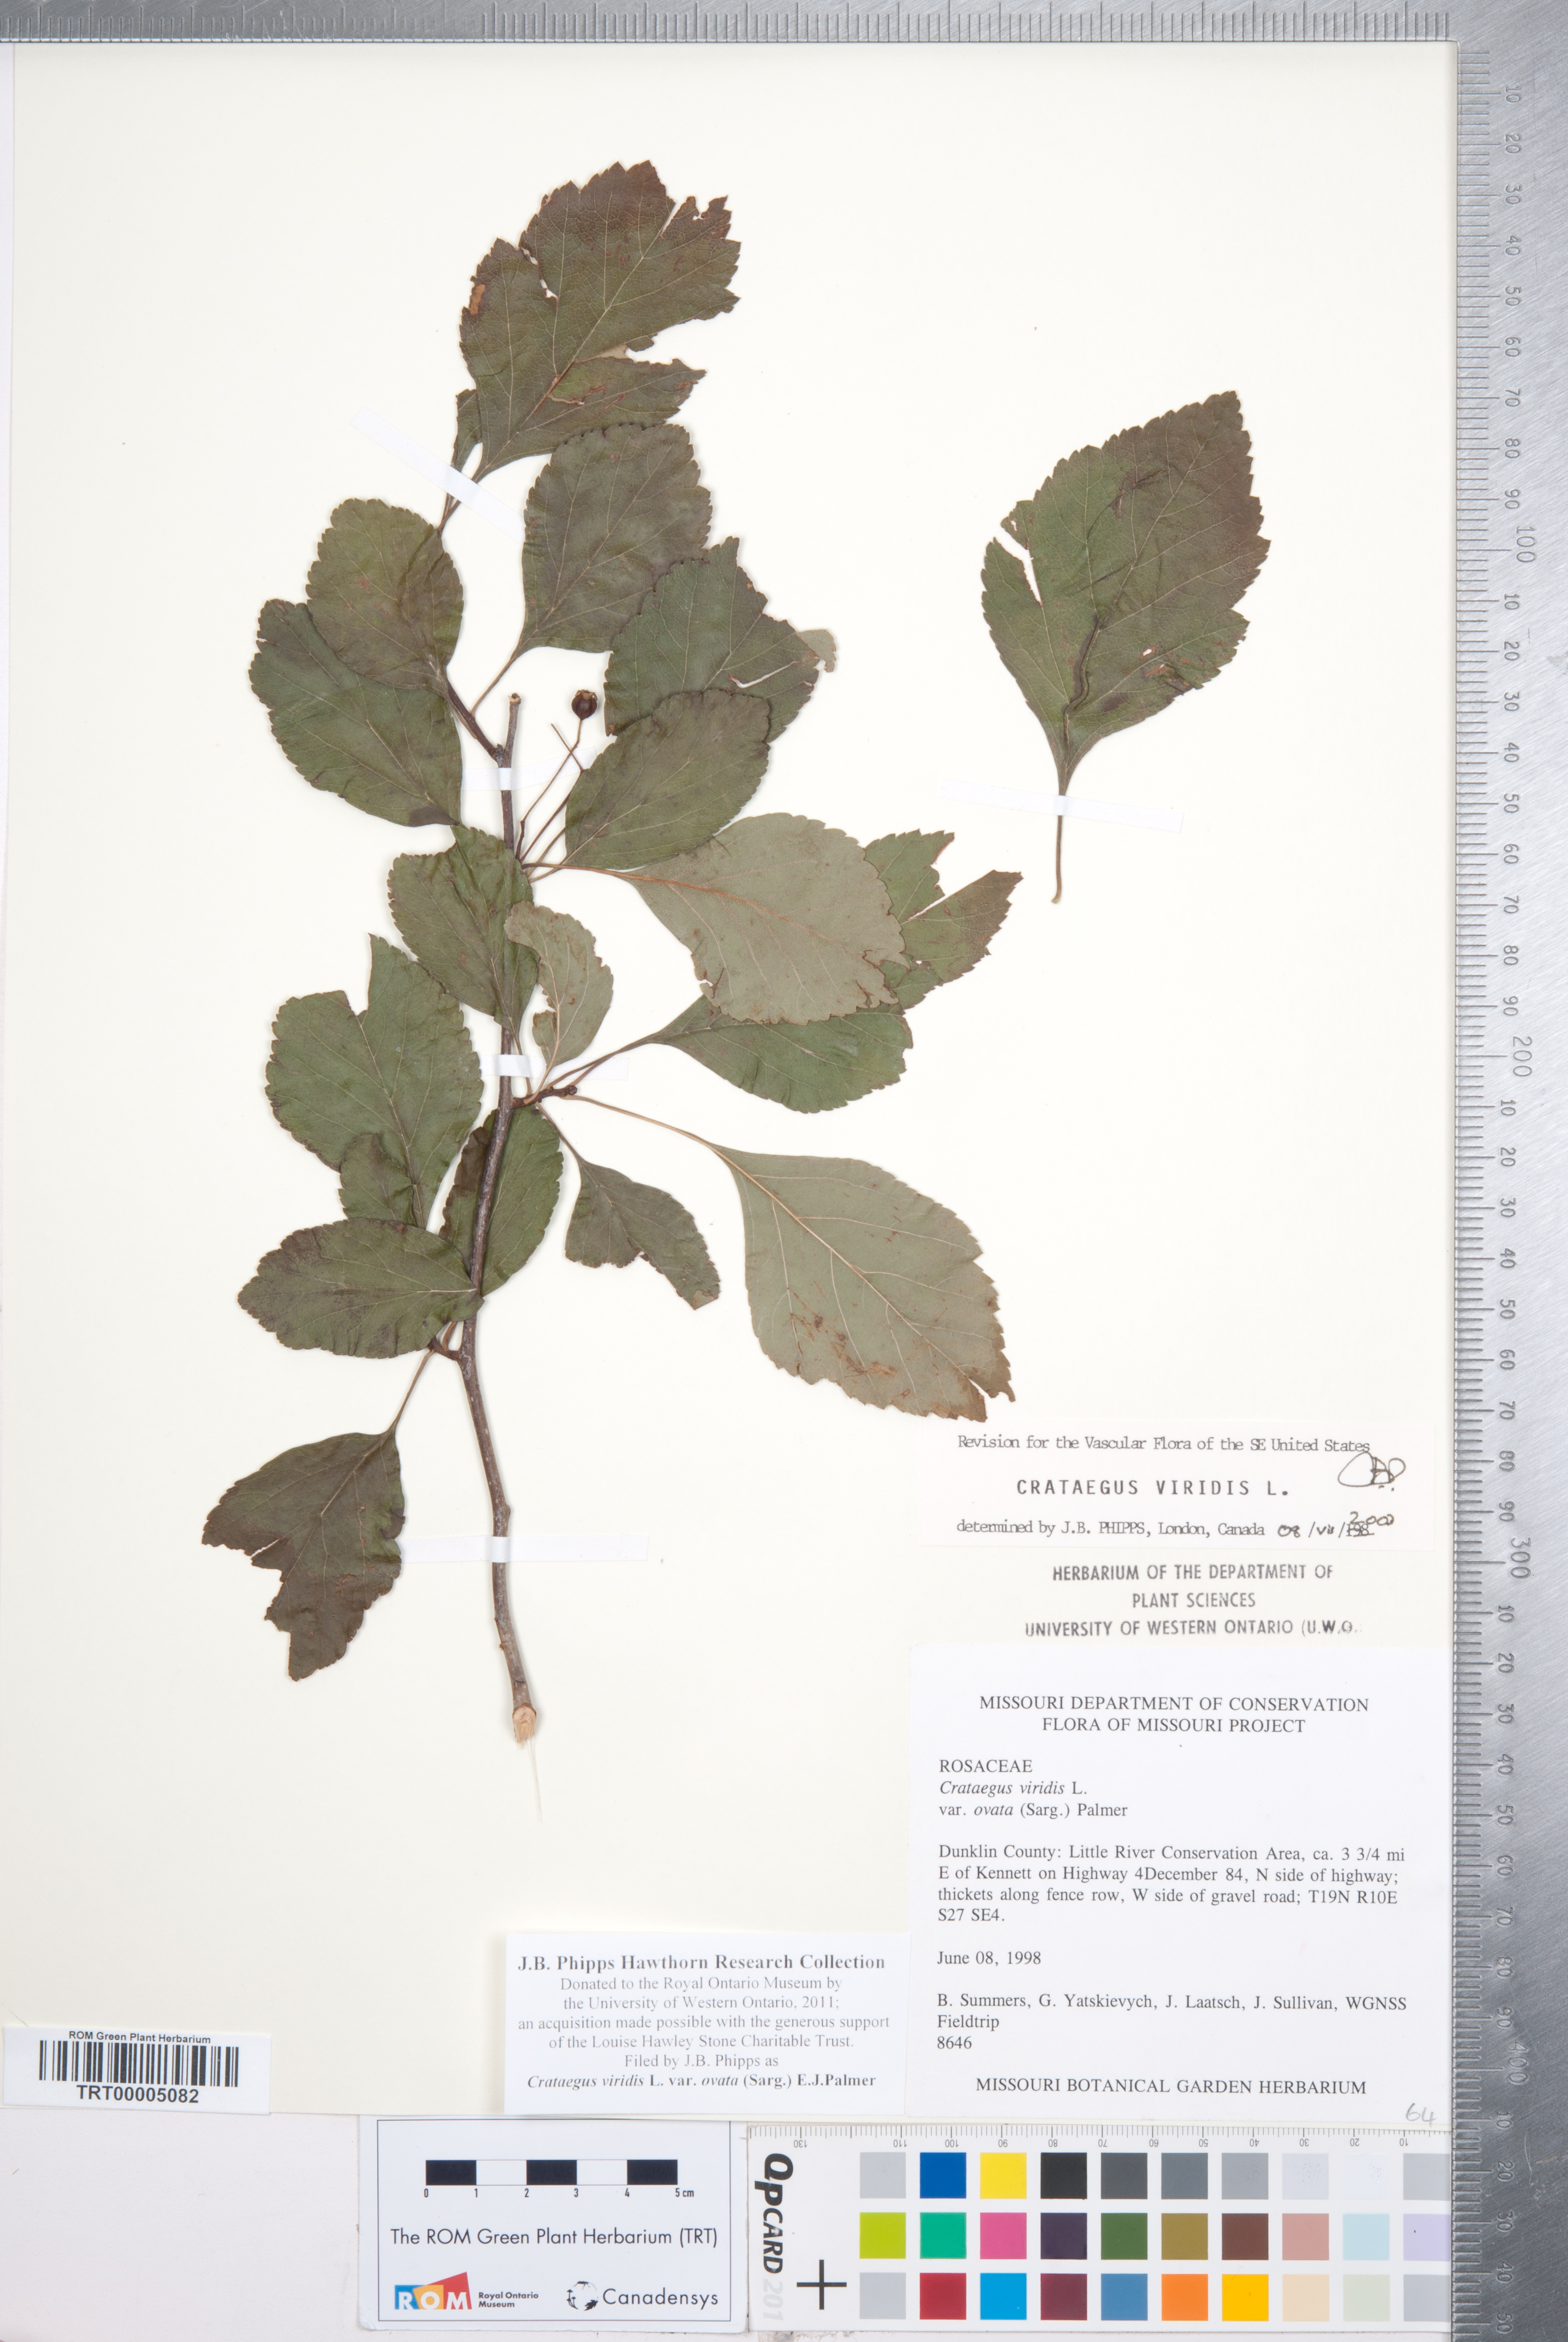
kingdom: Plantae
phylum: Tracheophyta
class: Magnoliopsida
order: Rosales
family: Rosaceae
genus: Crataegus
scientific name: Crataegus viridis
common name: Southernthorn
